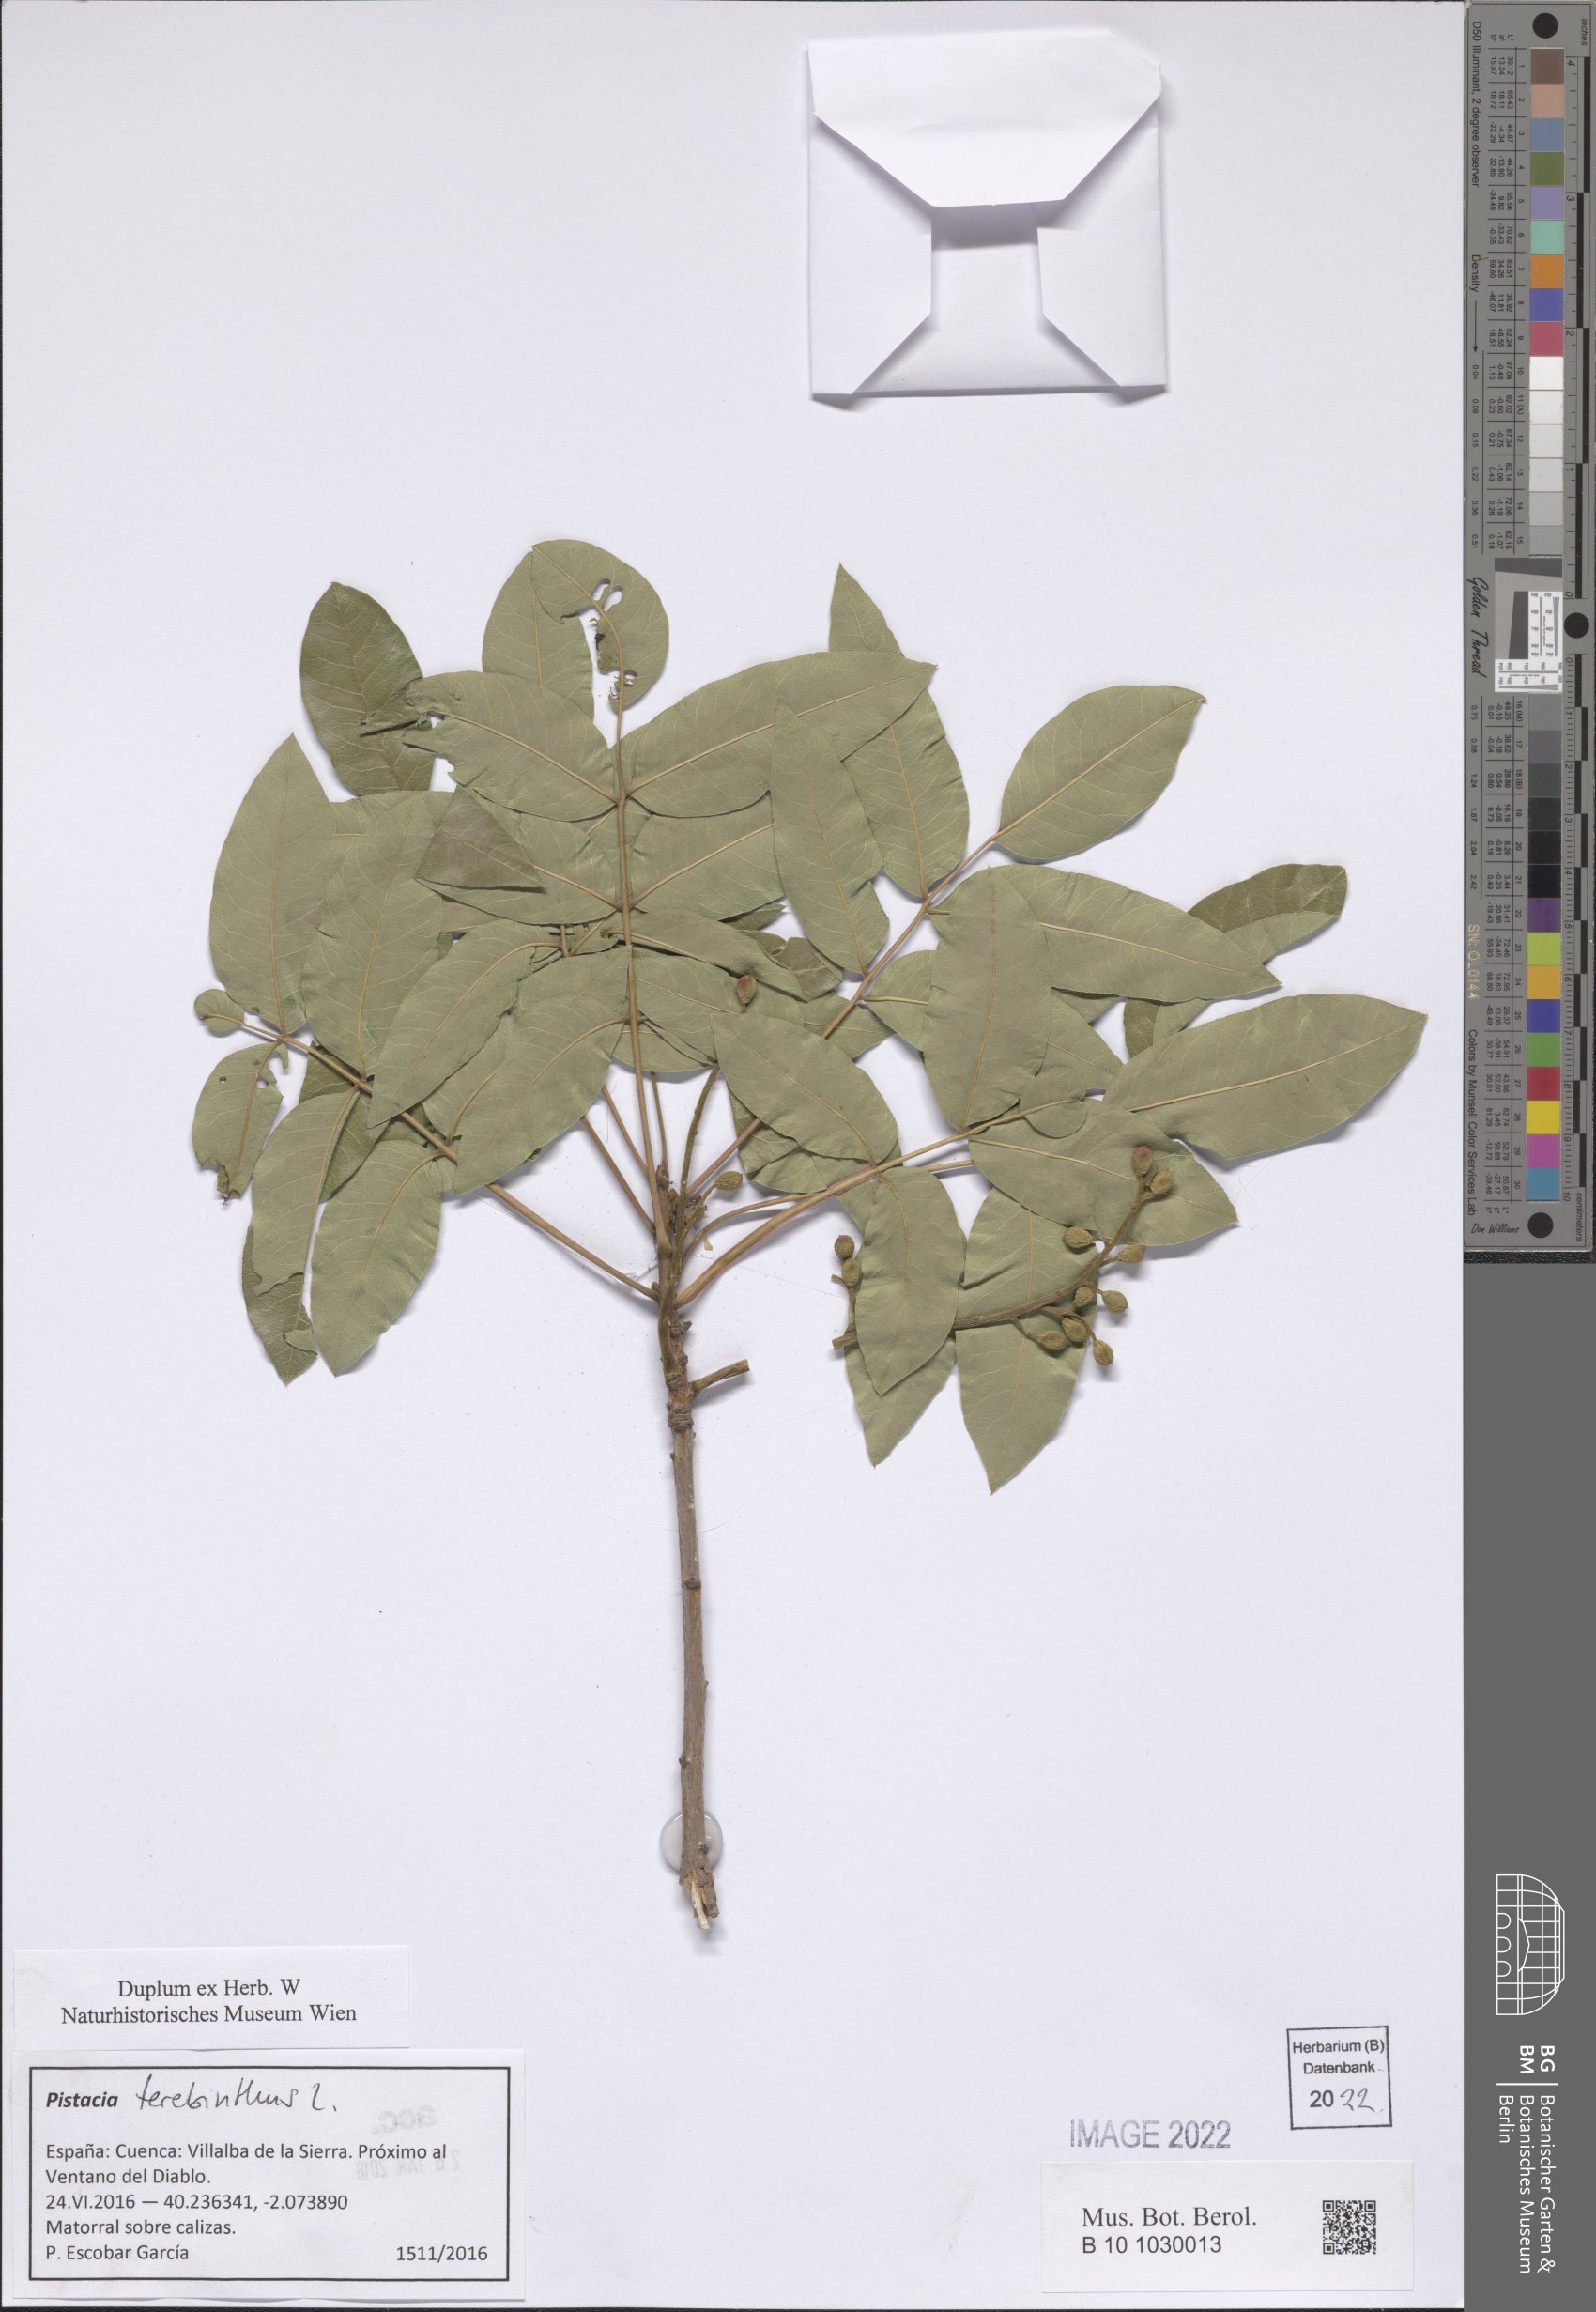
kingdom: Plantae
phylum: Tracheophyta
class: Magnoliopsida
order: Sapindales
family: Anacardiaceae
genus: Pistacia
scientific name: Pistacia terebinthus
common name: Terebinth
